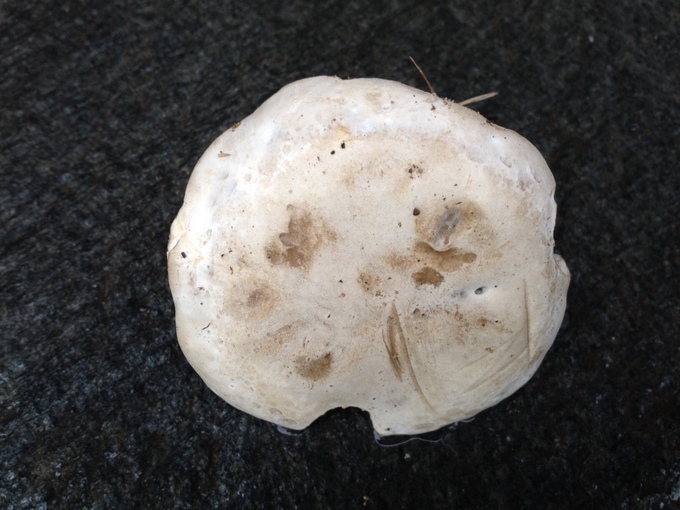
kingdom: Fungi
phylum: Basidiomycota
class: Agaricomycetes
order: Agaricales
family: Entolomataceae
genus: Clitopilus
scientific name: Clitopilus
